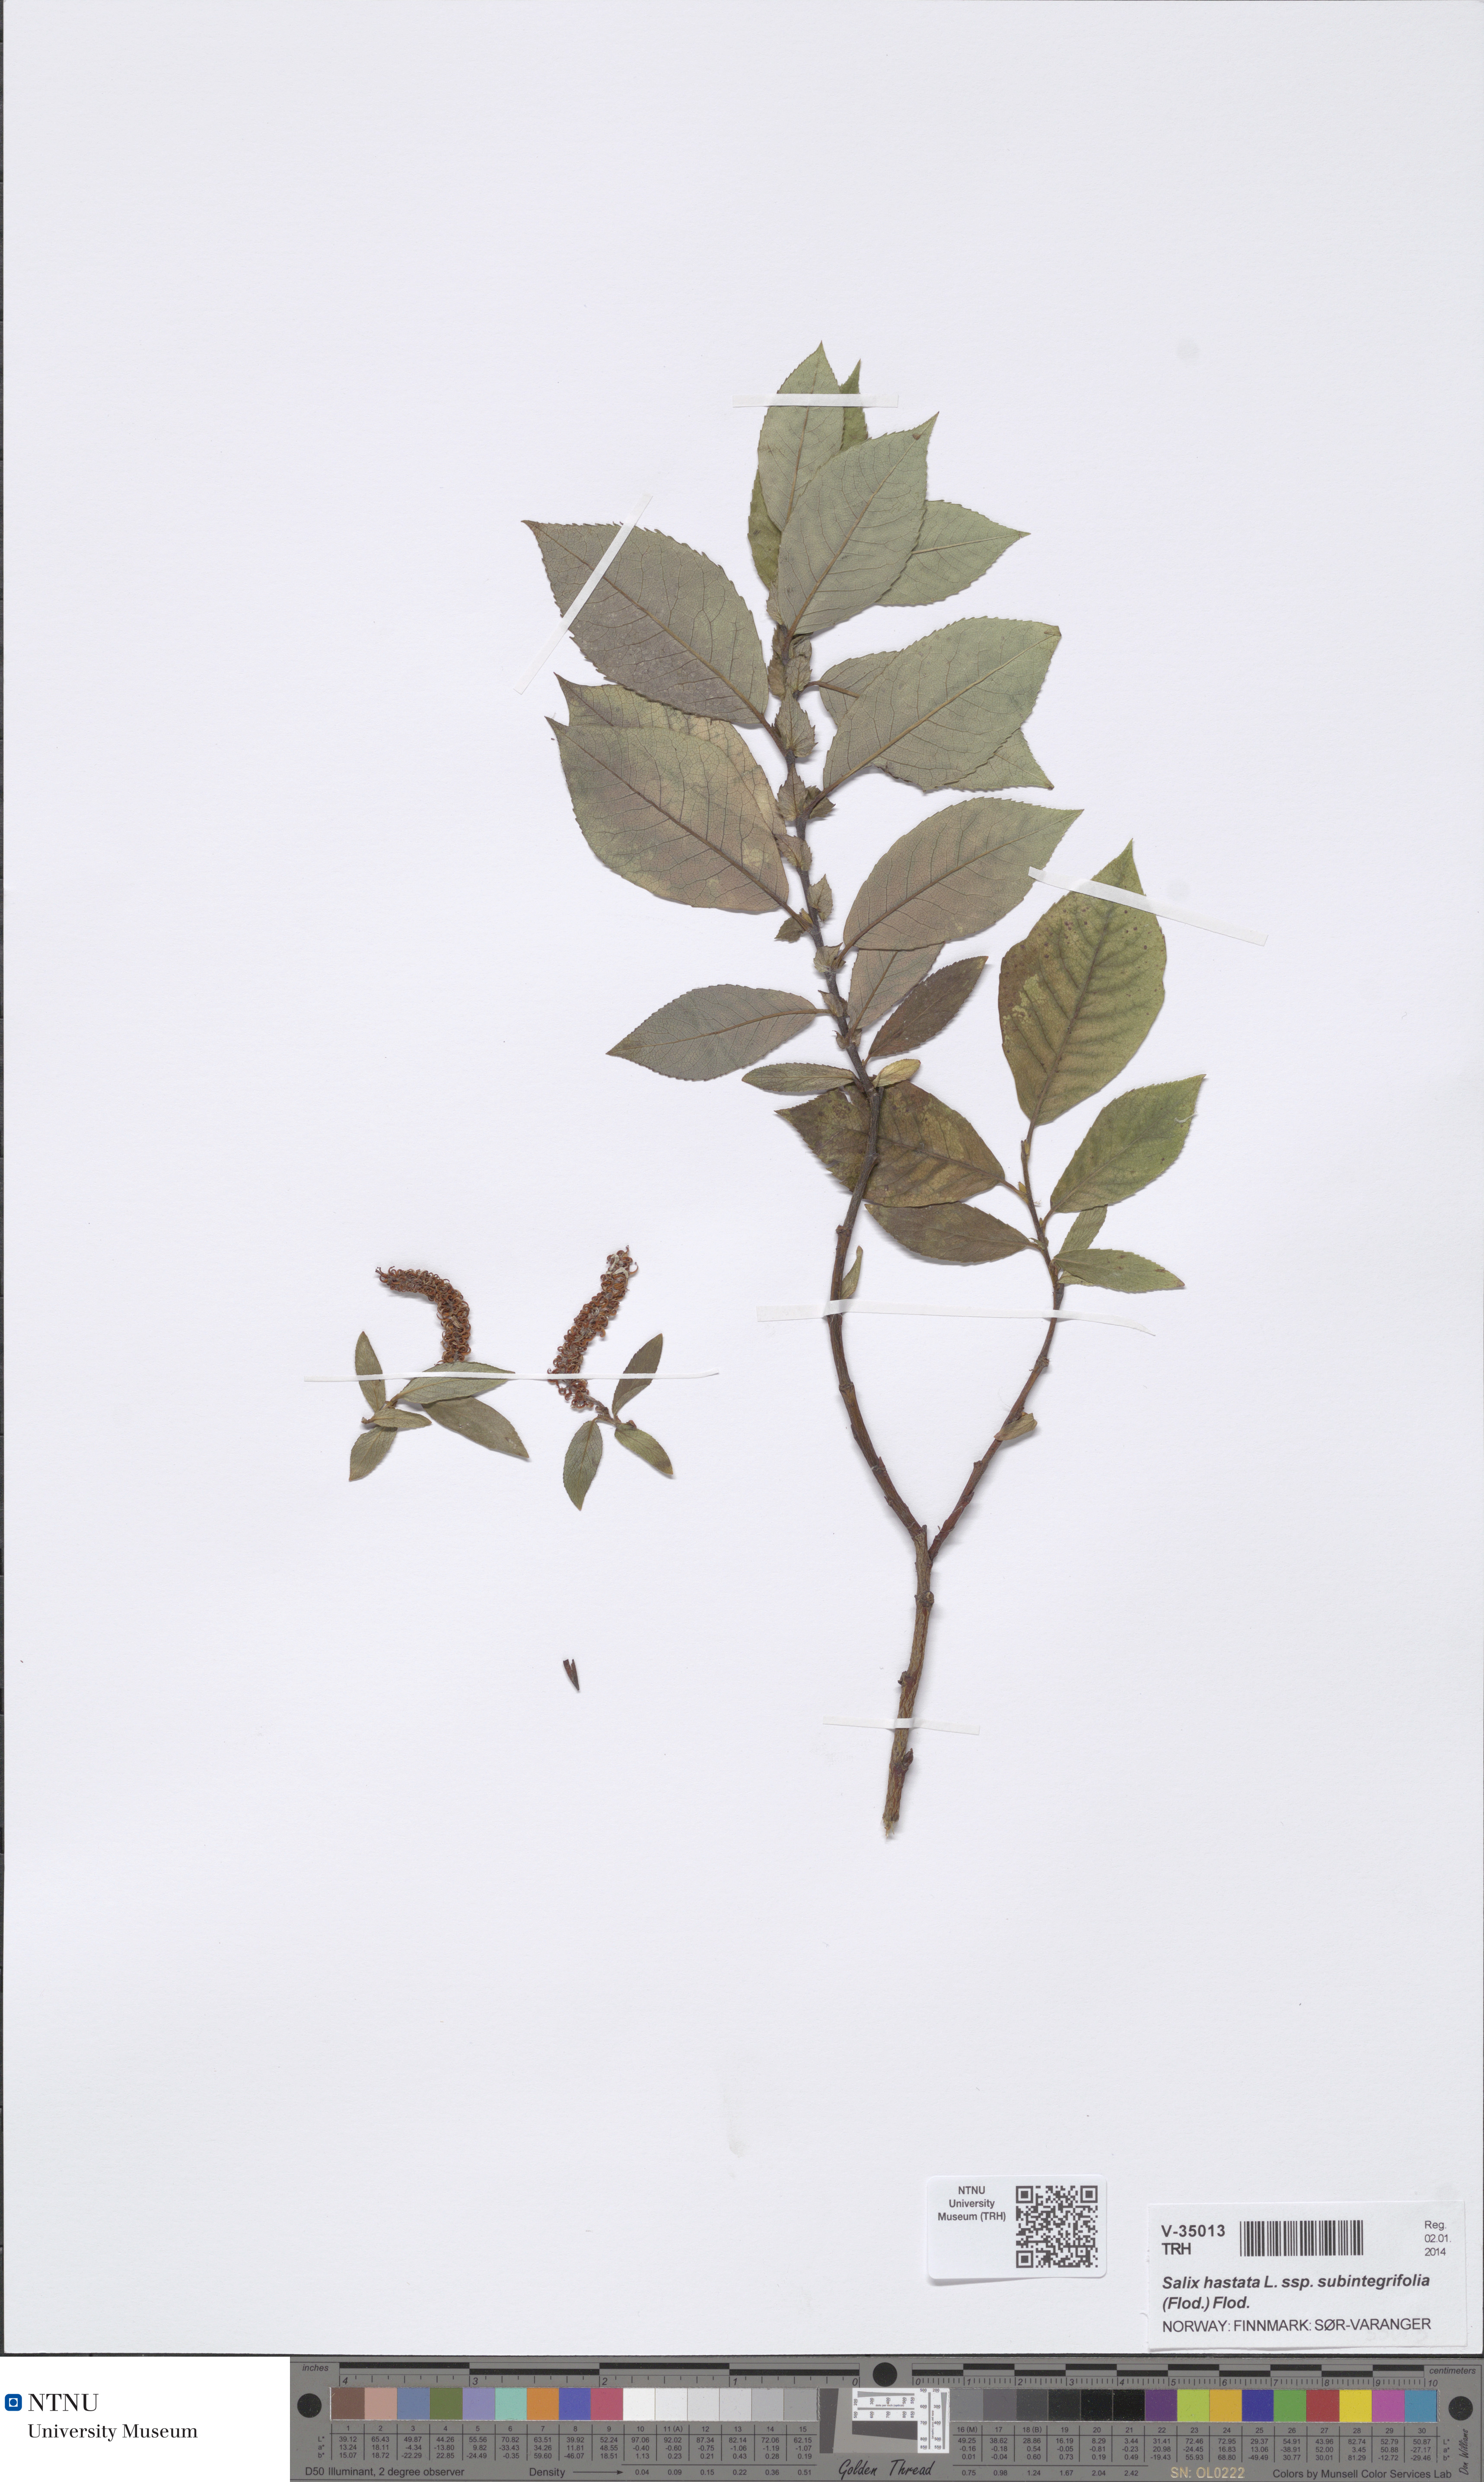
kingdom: Plantae
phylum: Tracheophyta
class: Magnoliopsida
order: Malpighiales
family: Salicaceae
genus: Salix
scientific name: Salix hastata
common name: Halberd willow
